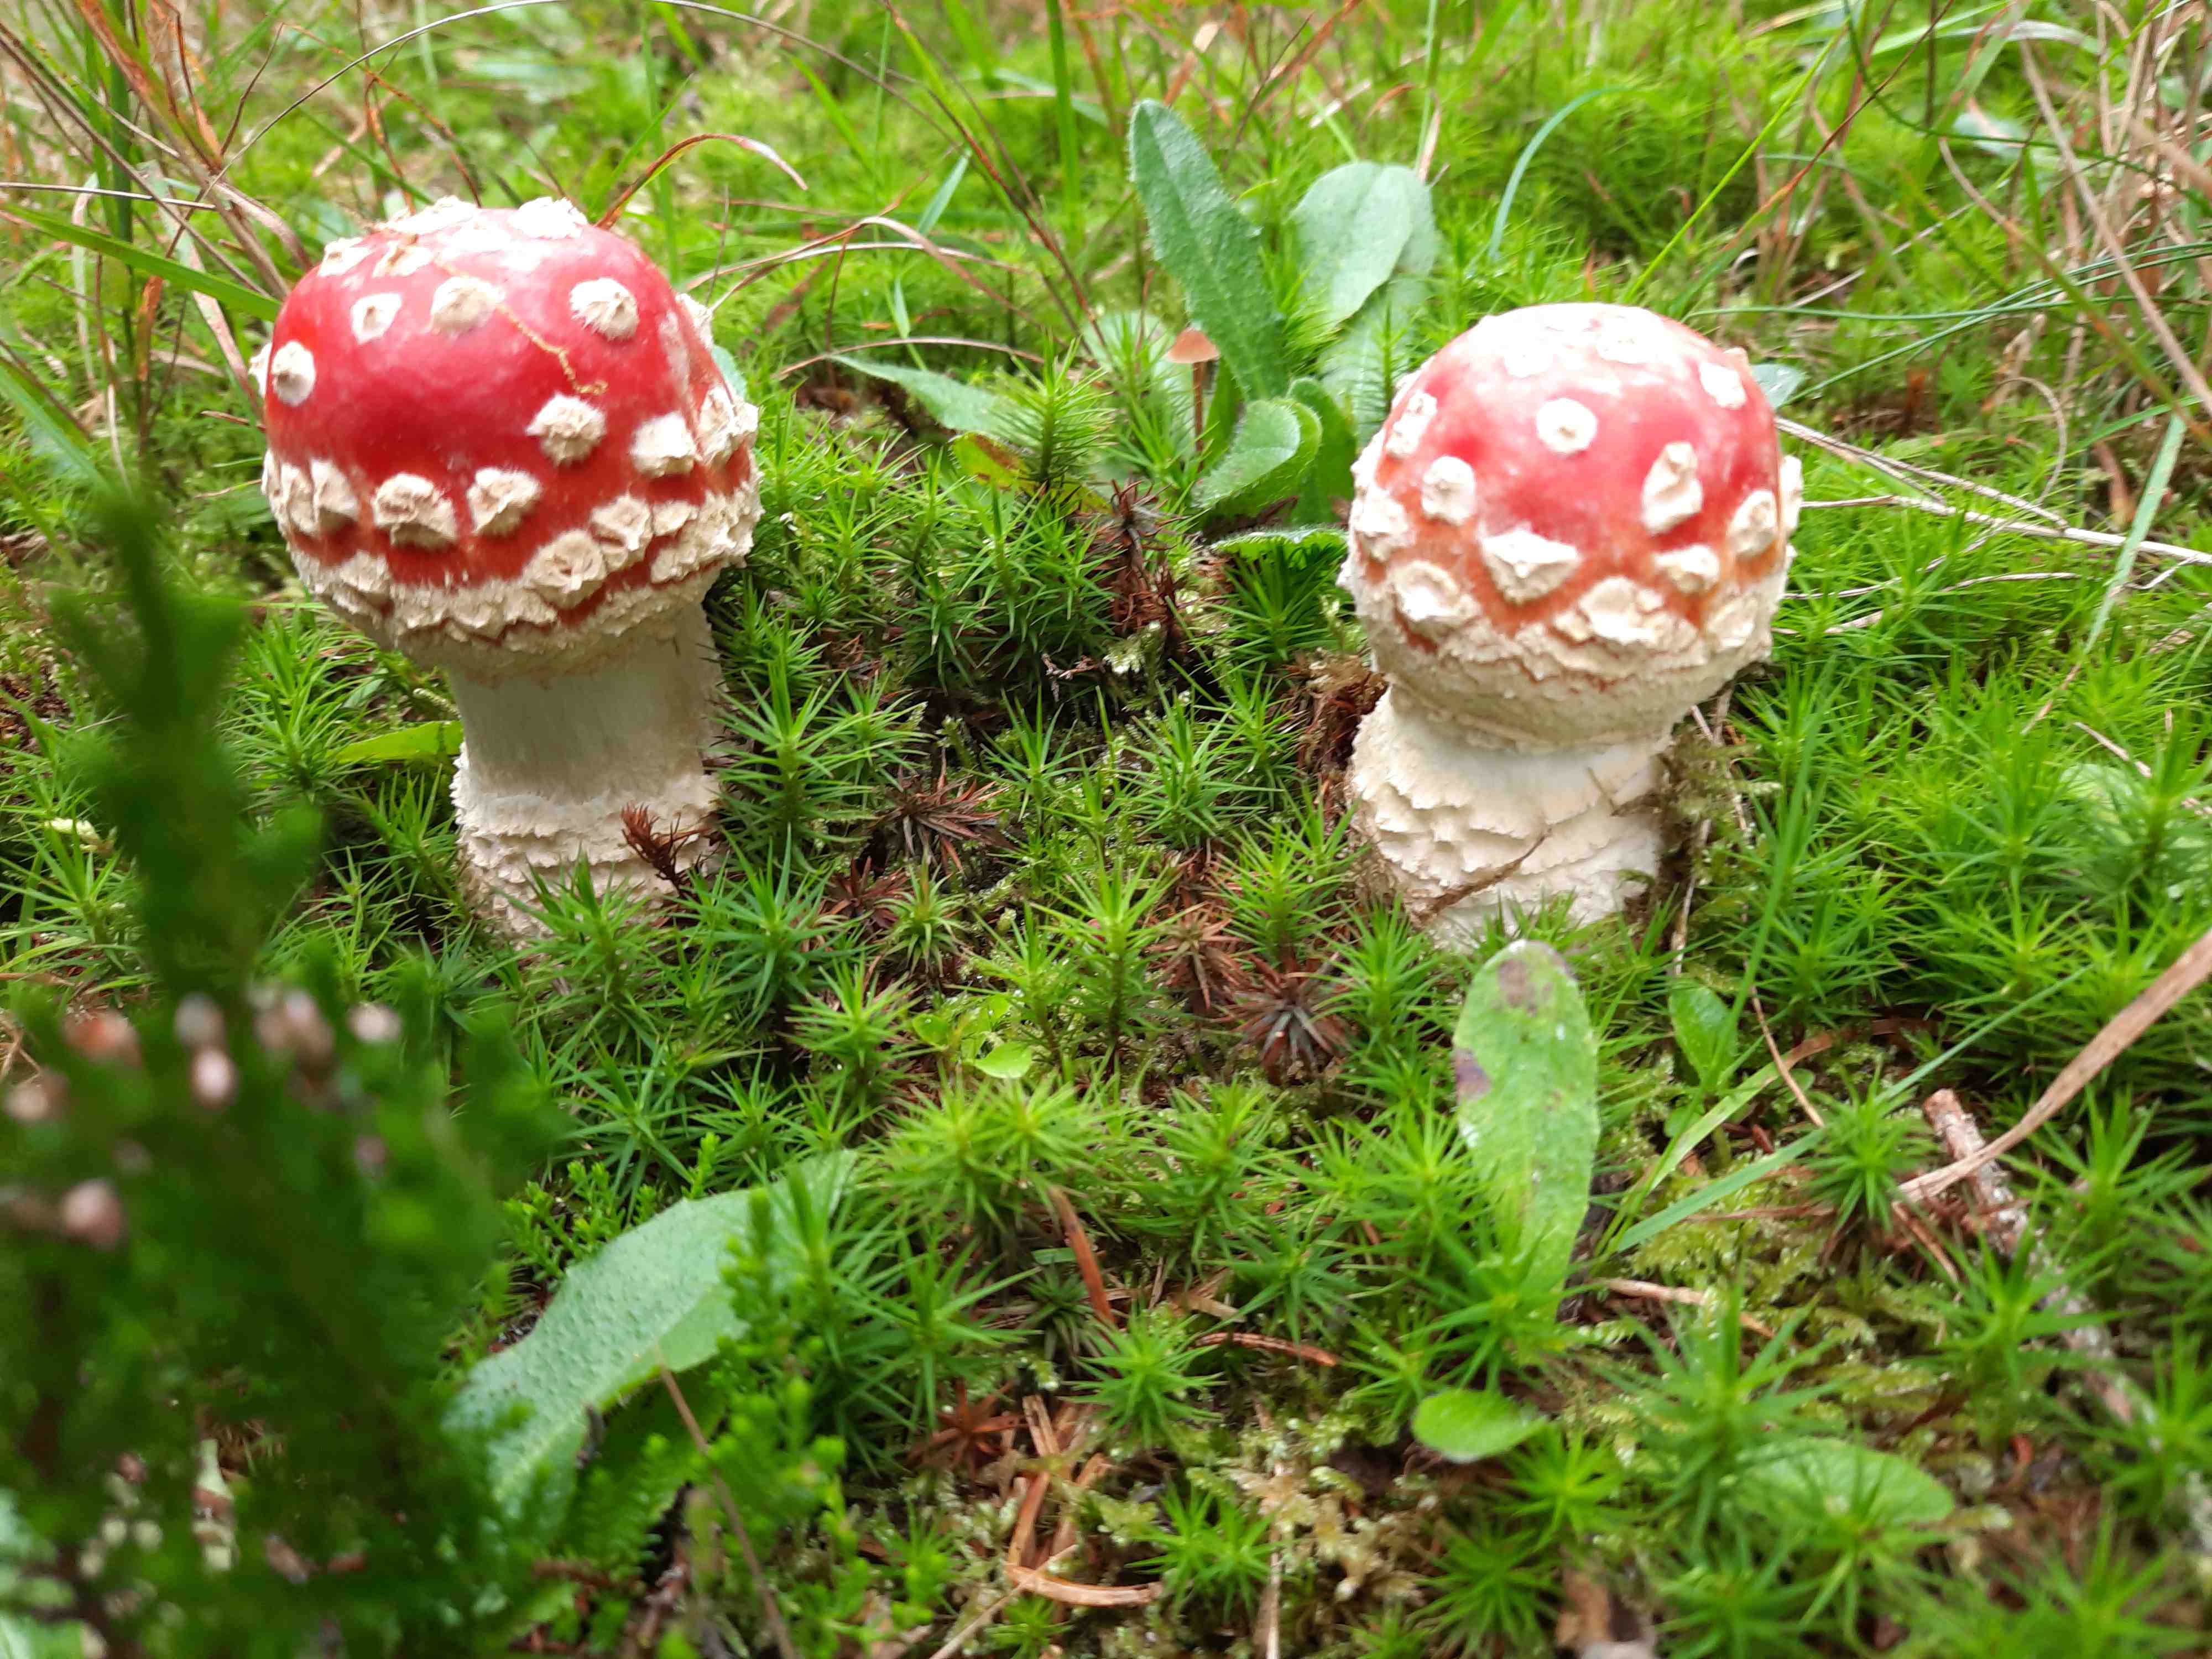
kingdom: Fungi
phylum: Basidiomycota
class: Agaricomycetes
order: Agaricales
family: Amanitaceae
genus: Amanita
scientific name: Amanita muscaria
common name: rød fluesvamp
